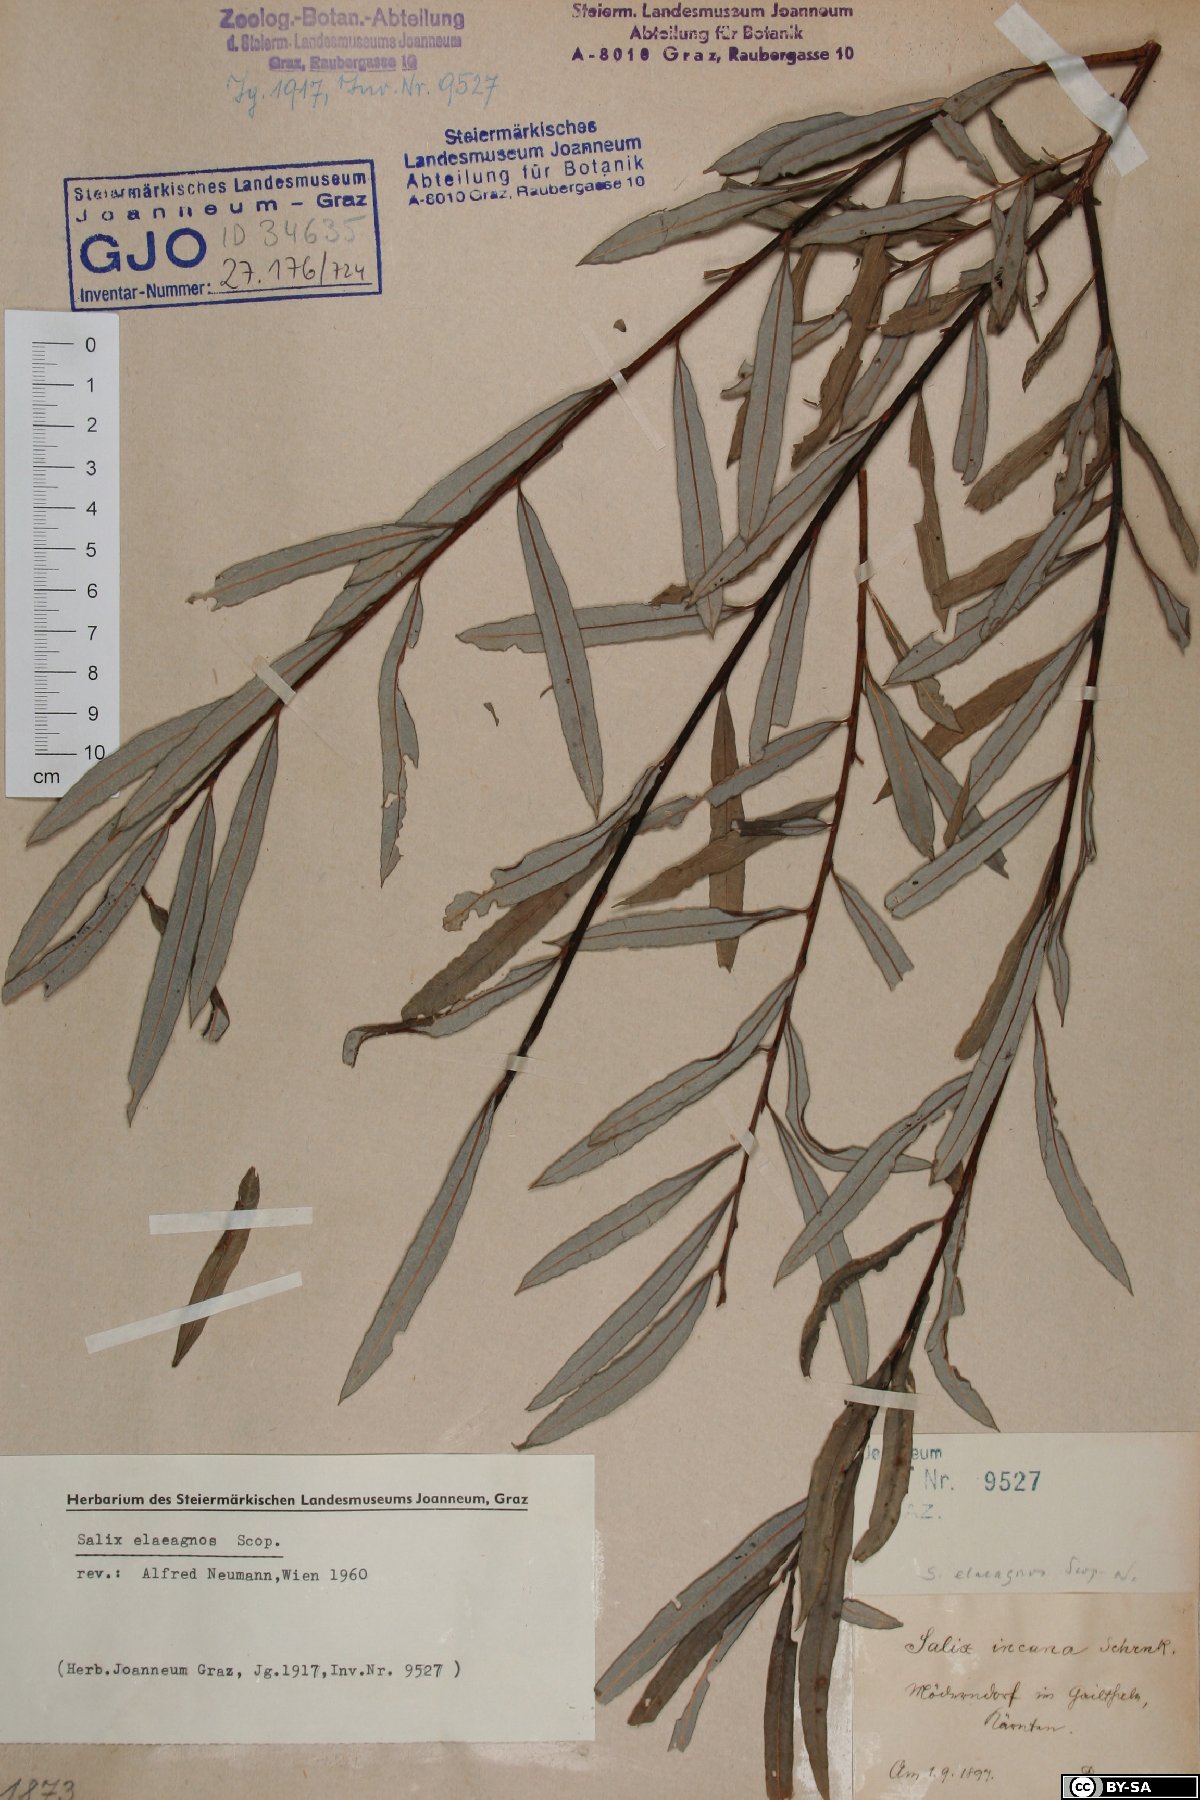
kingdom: Plantae
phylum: Tracheophyta
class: Magnoliopsida
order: Malpighiales
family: Salicaceae
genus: Salix
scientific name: Salix eleagnos
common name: Elaeagnus willow
